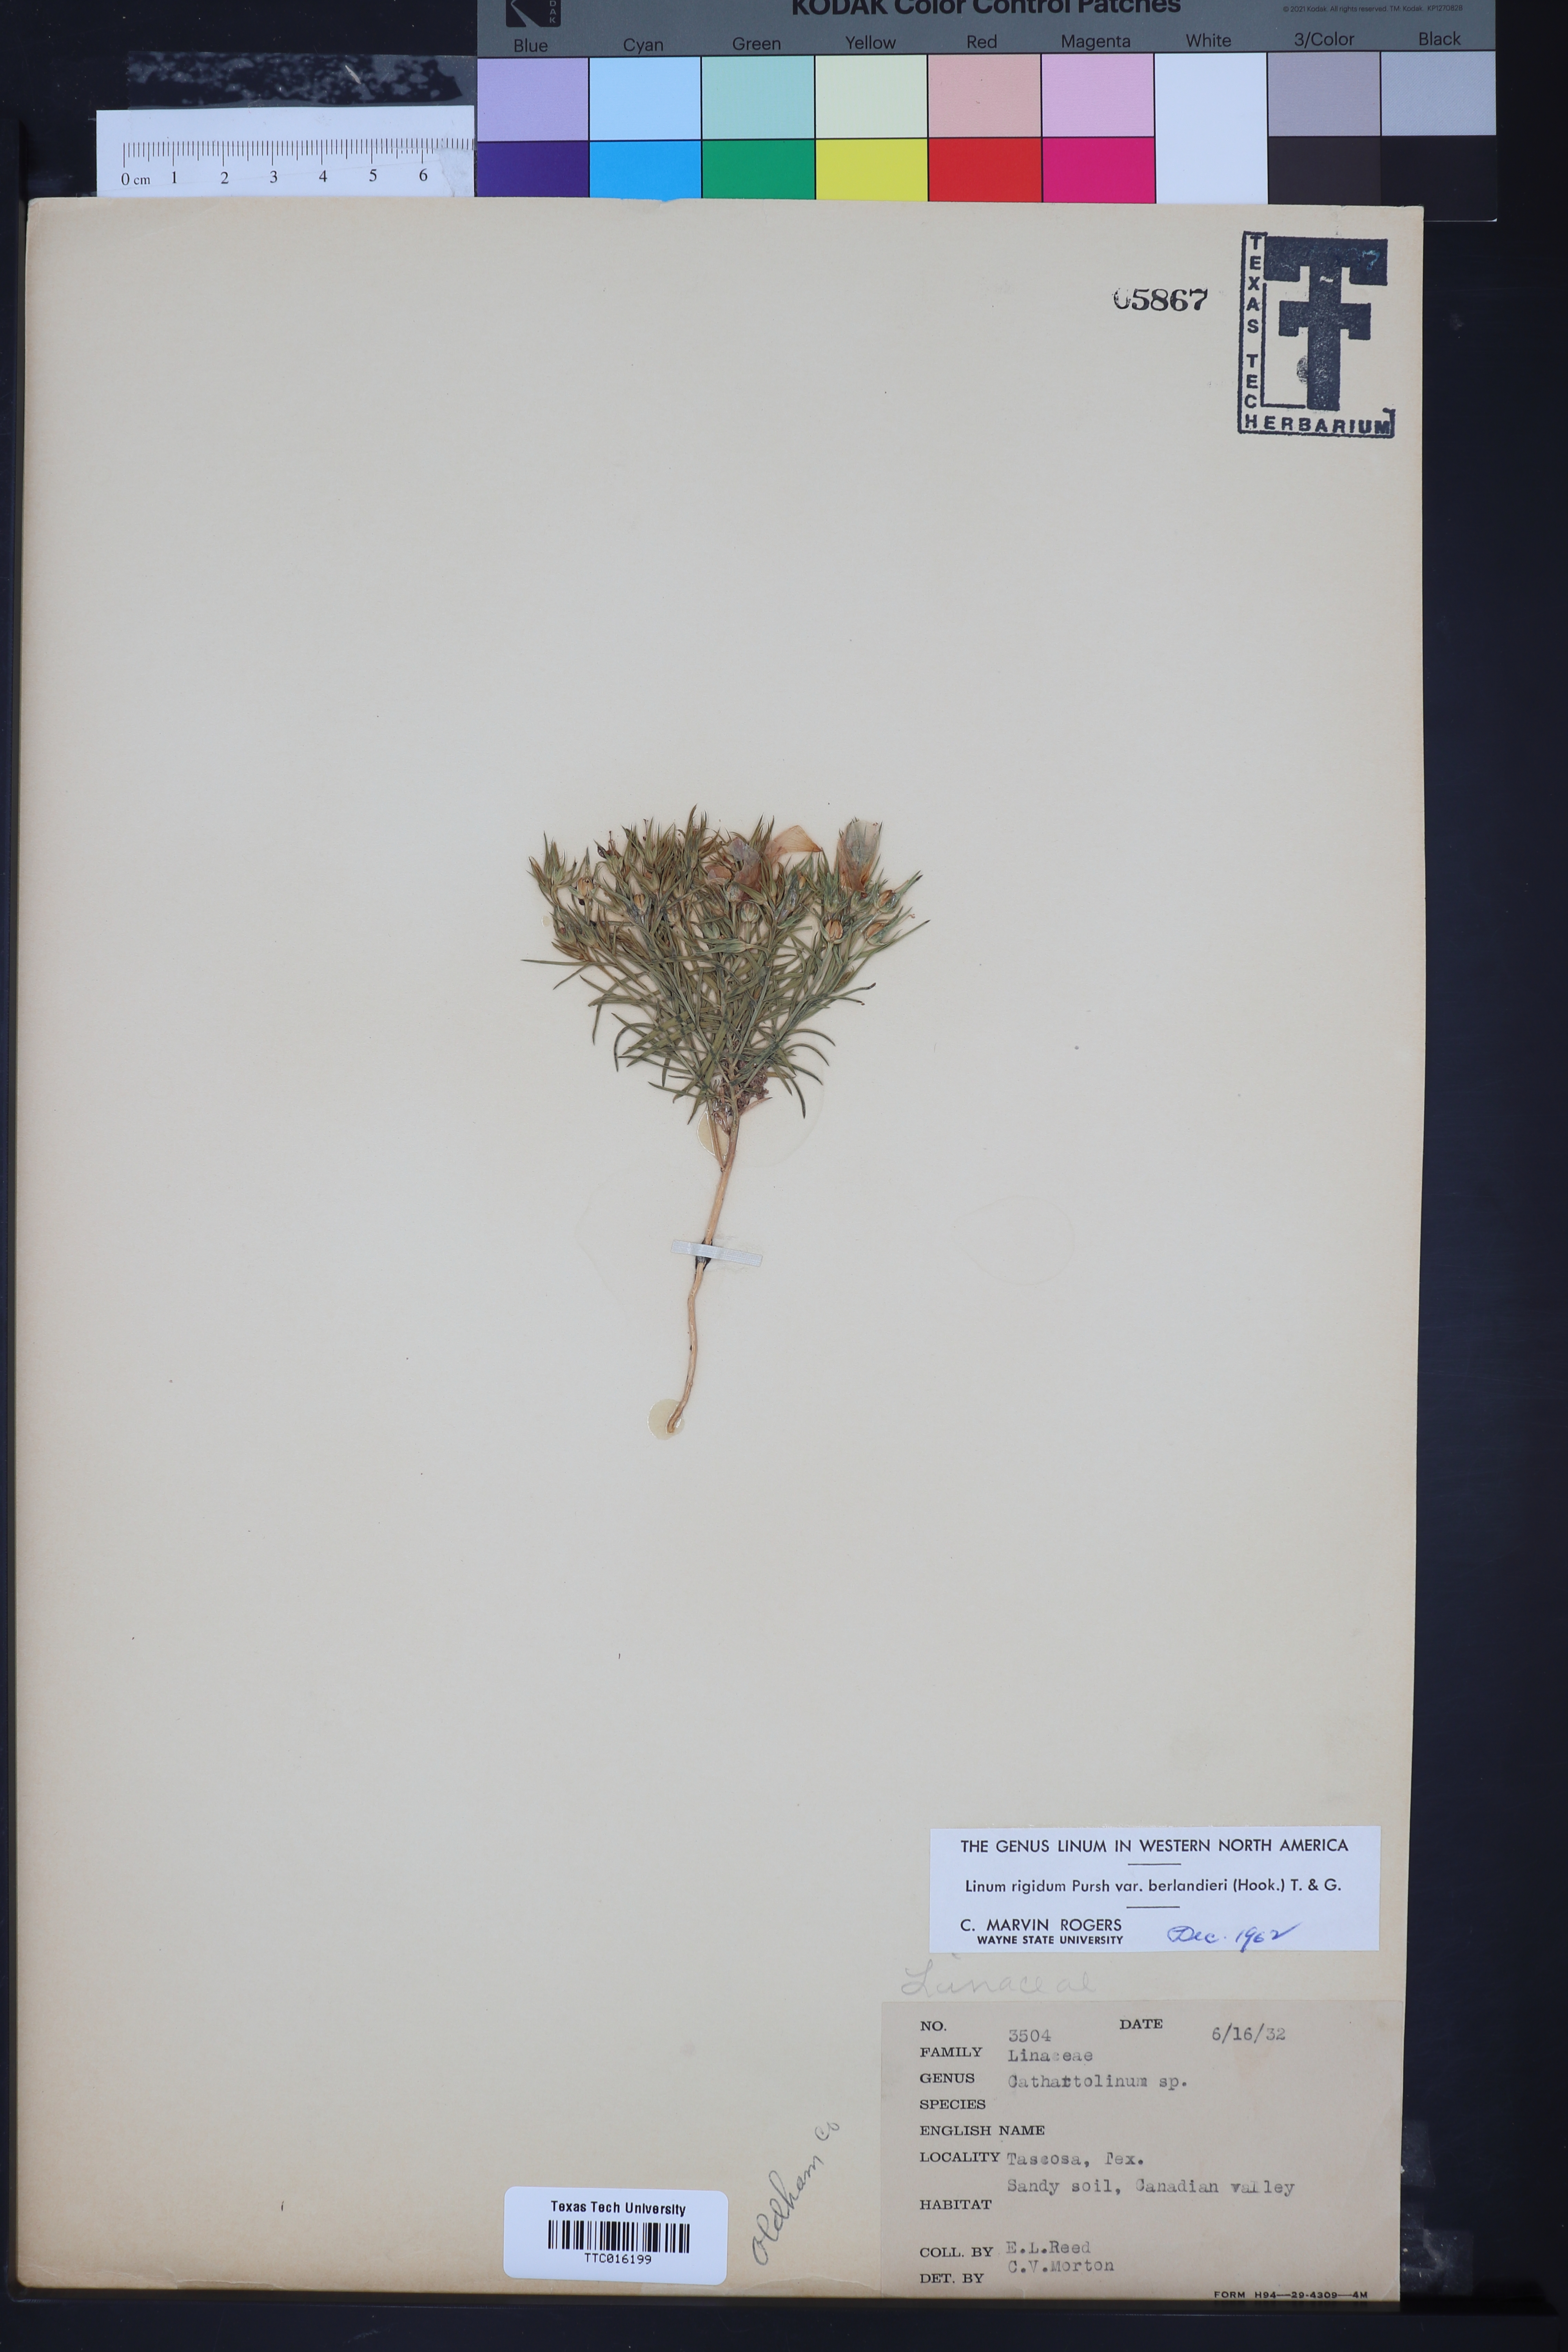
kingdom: Plantae
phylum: Tracheophyta
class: Magnoliopsida
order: Malpighiales
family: Linaceae
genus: Linum
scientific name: Linum berlandieri
